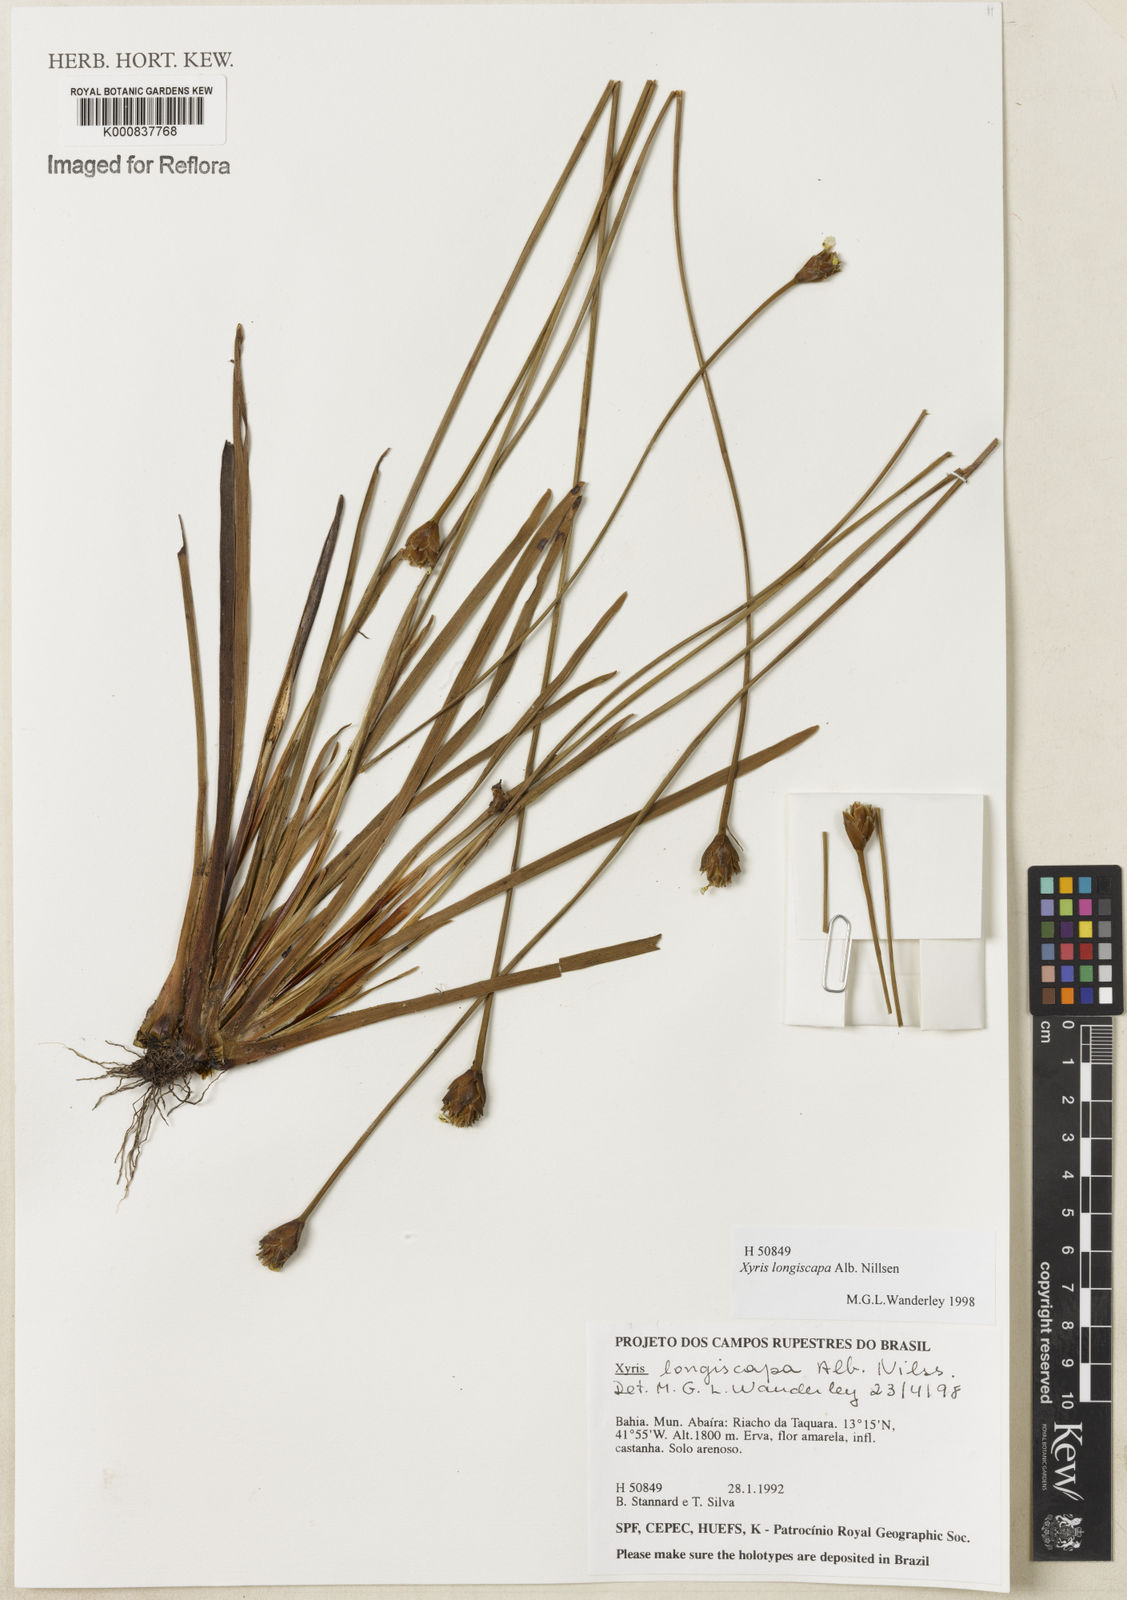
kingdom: Plantae
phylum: Tracheophyta
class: Liliopsida
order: Poales
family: Xyridaceae
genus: Xyris
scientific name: Xyris
